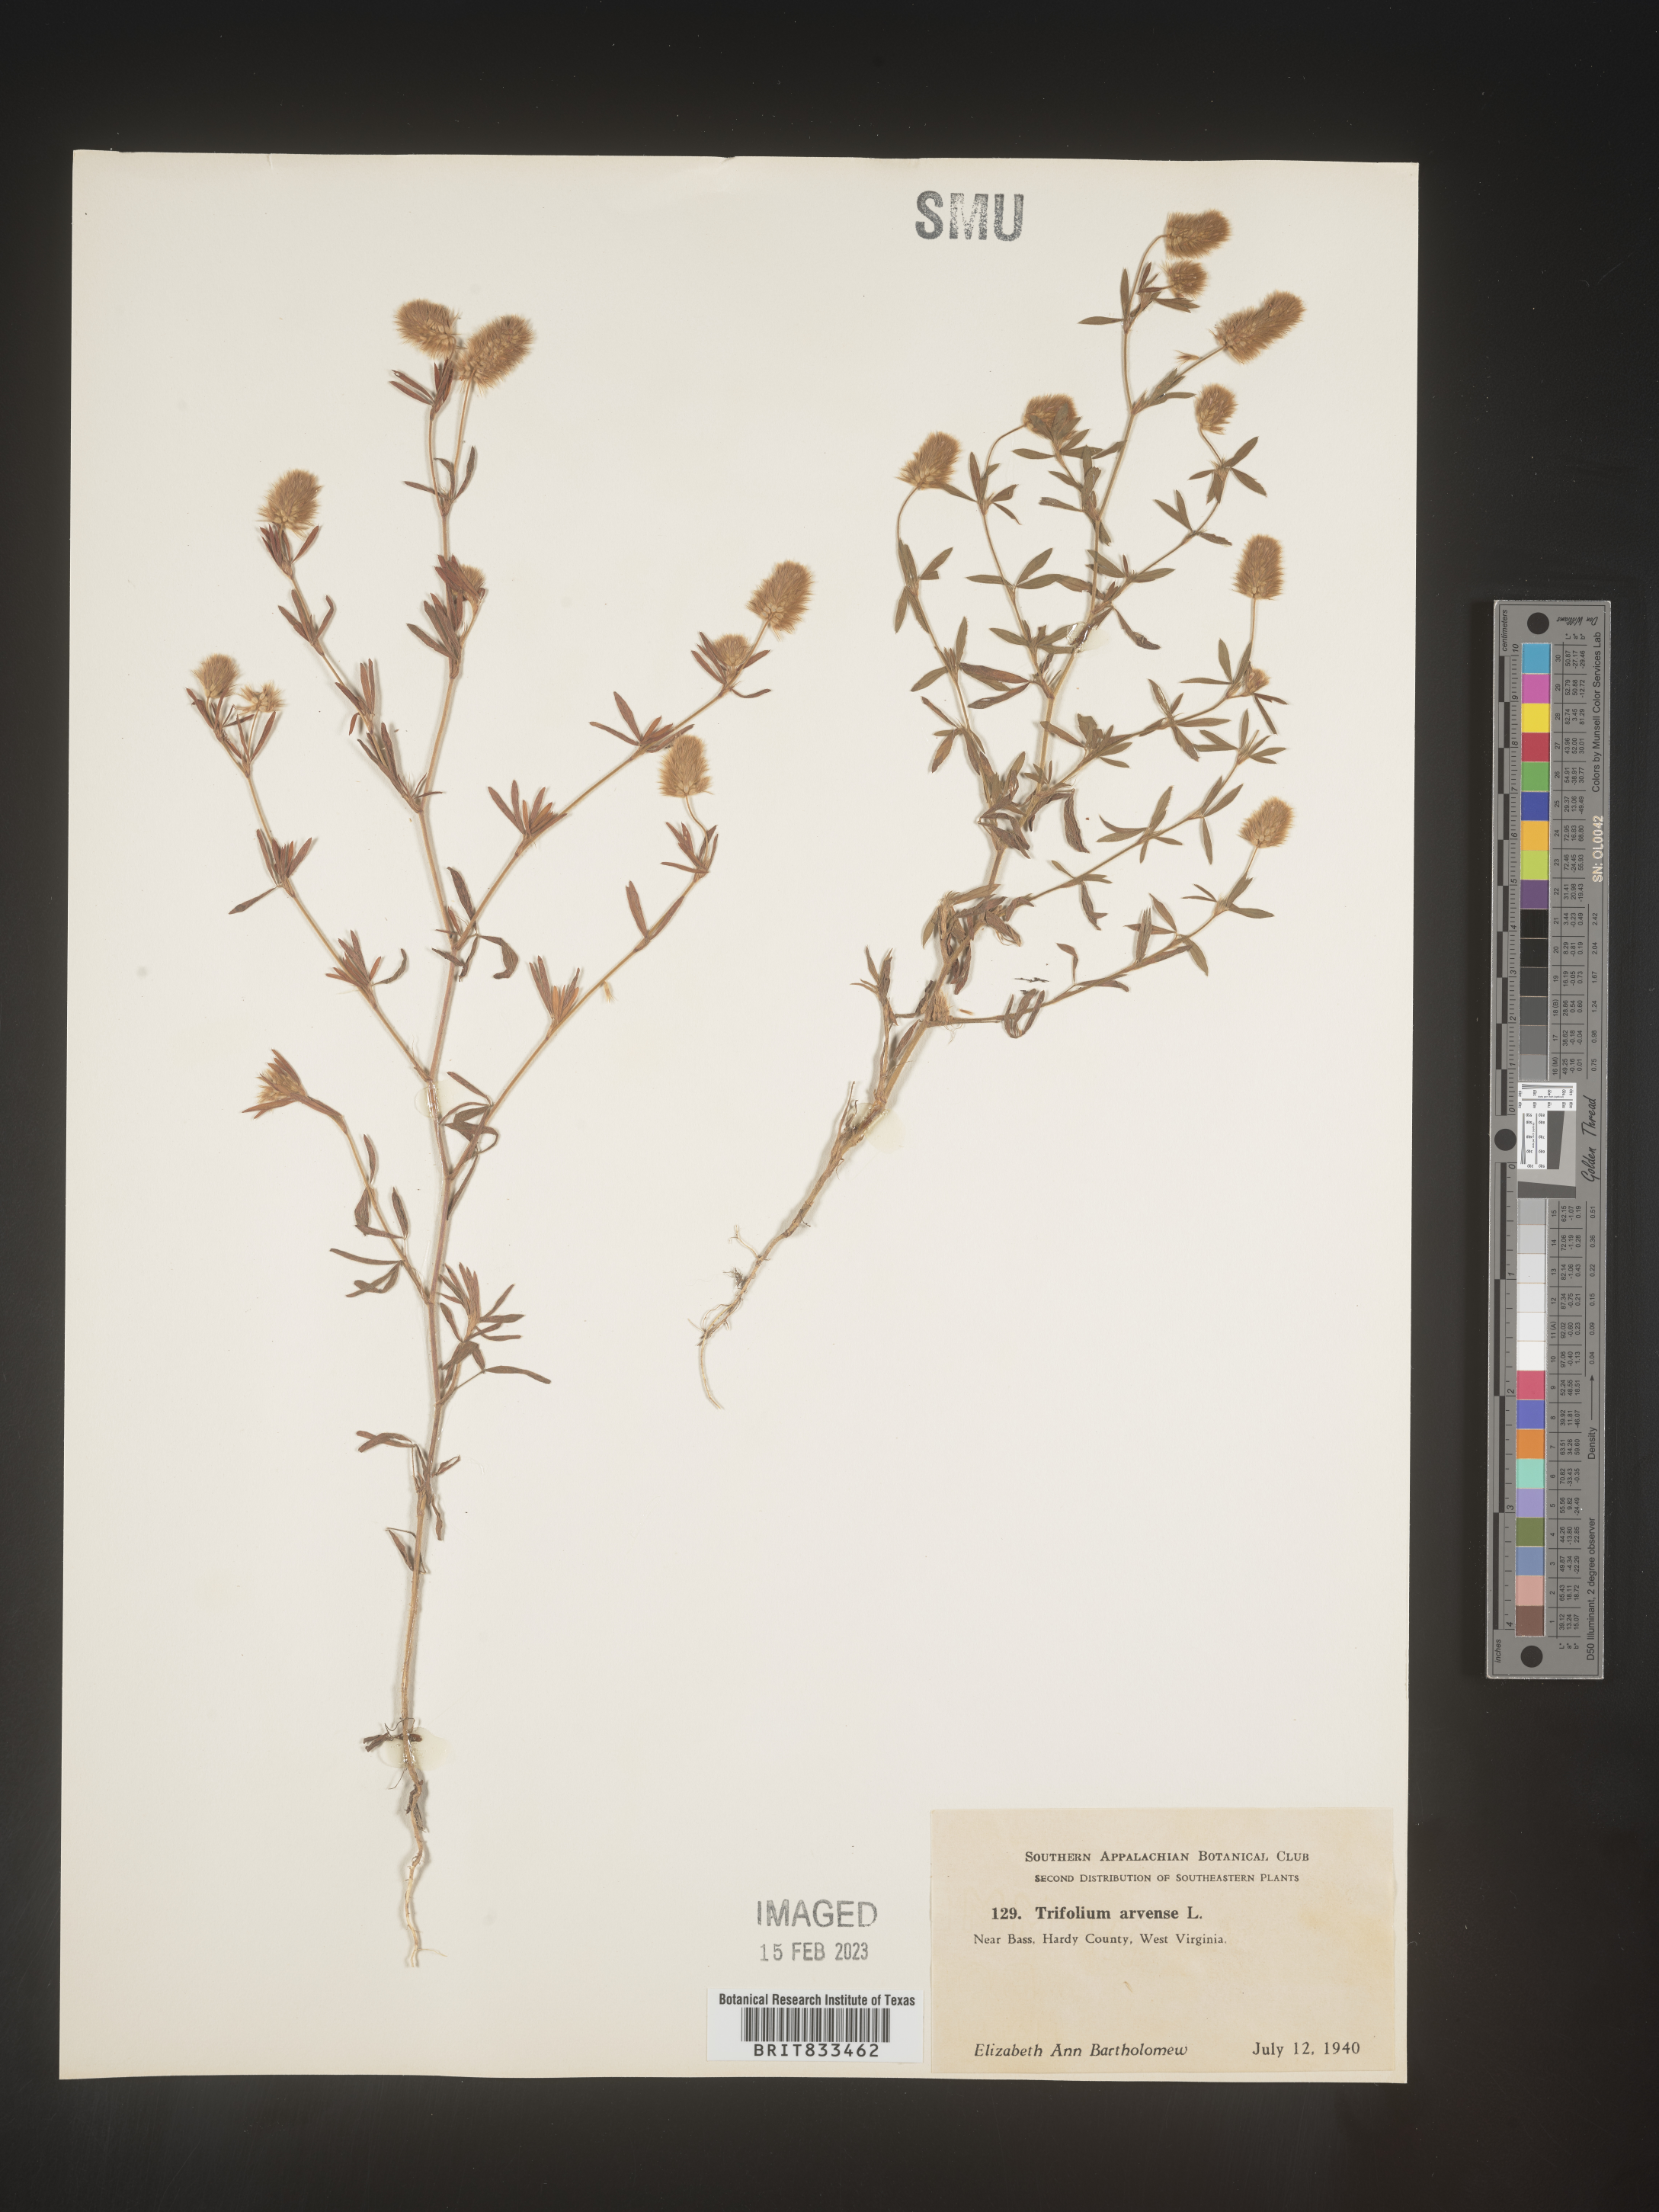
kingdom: Plantae
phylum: Tracheophyta
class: Magnoliopsida
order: Fabales
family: Fabaceae
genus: Trifolium
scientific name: Trifolium arvense
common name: Hare's-foot clover
